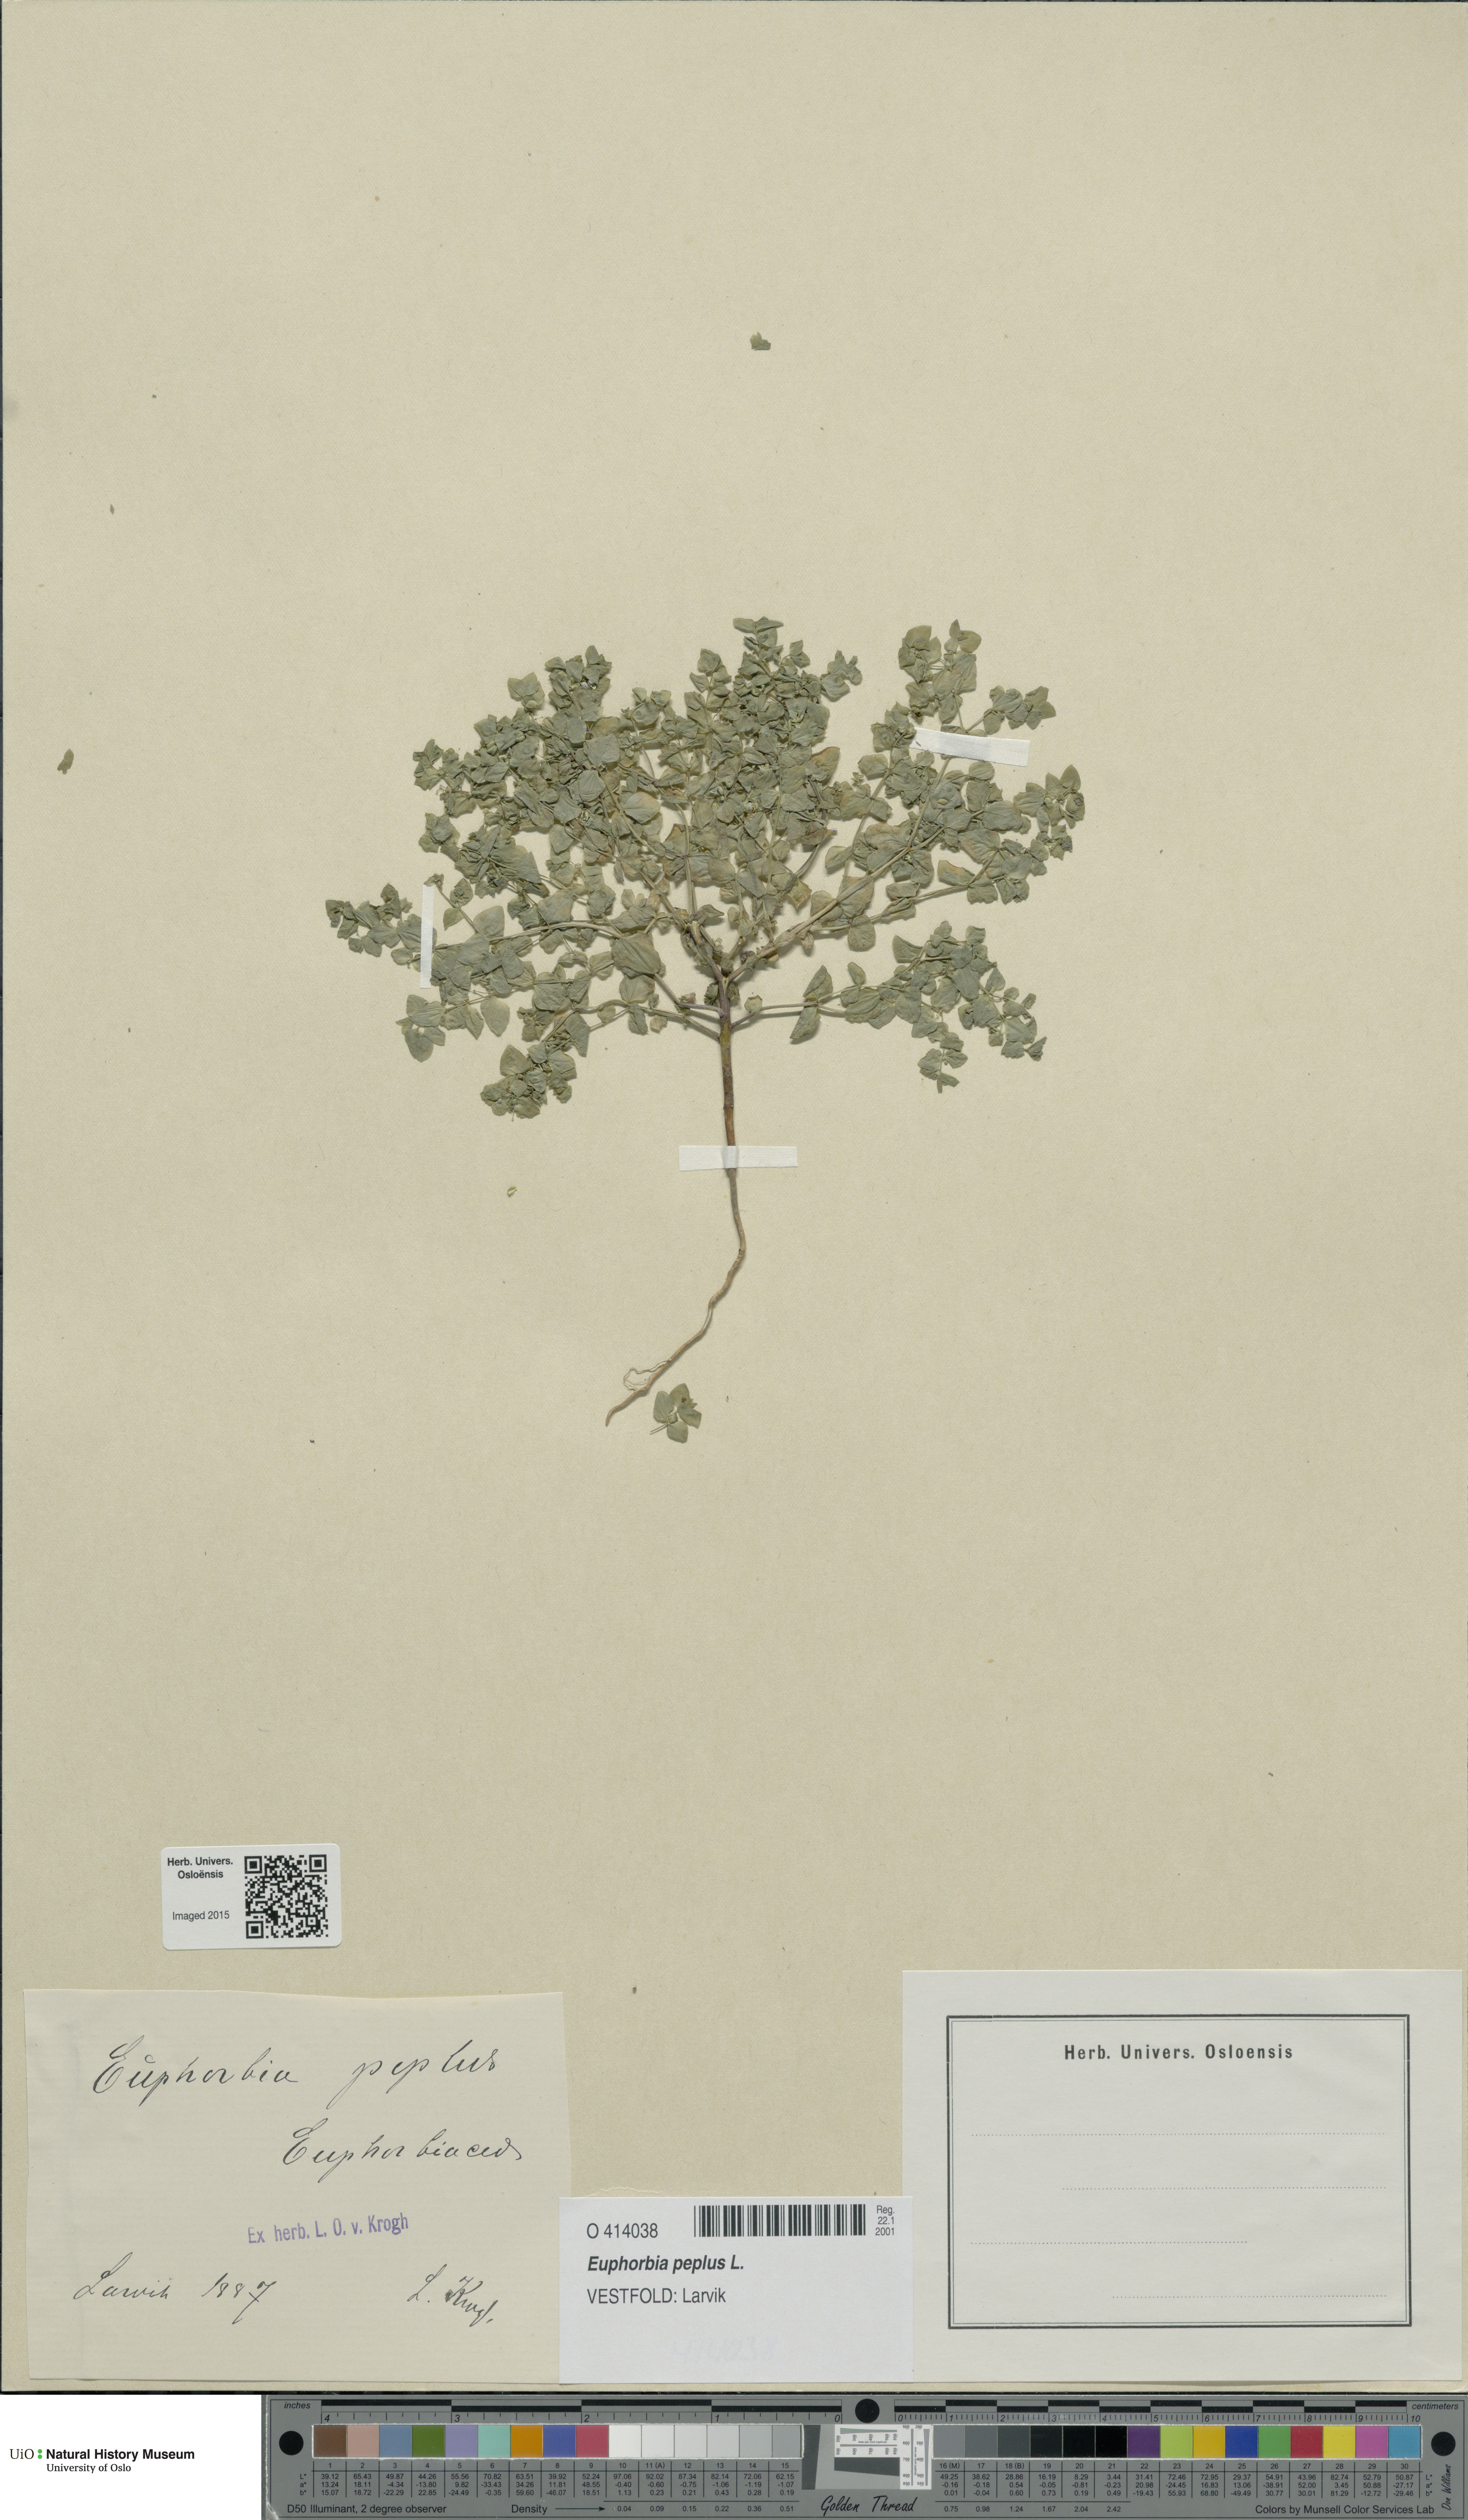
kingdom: Plantae
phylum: Tracheophyta
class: Magnoliopsida
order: Malpighiales
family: Euphorbiaceae
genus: Euphorbia
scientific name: Euphorbia peplus
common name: Petty spurge
